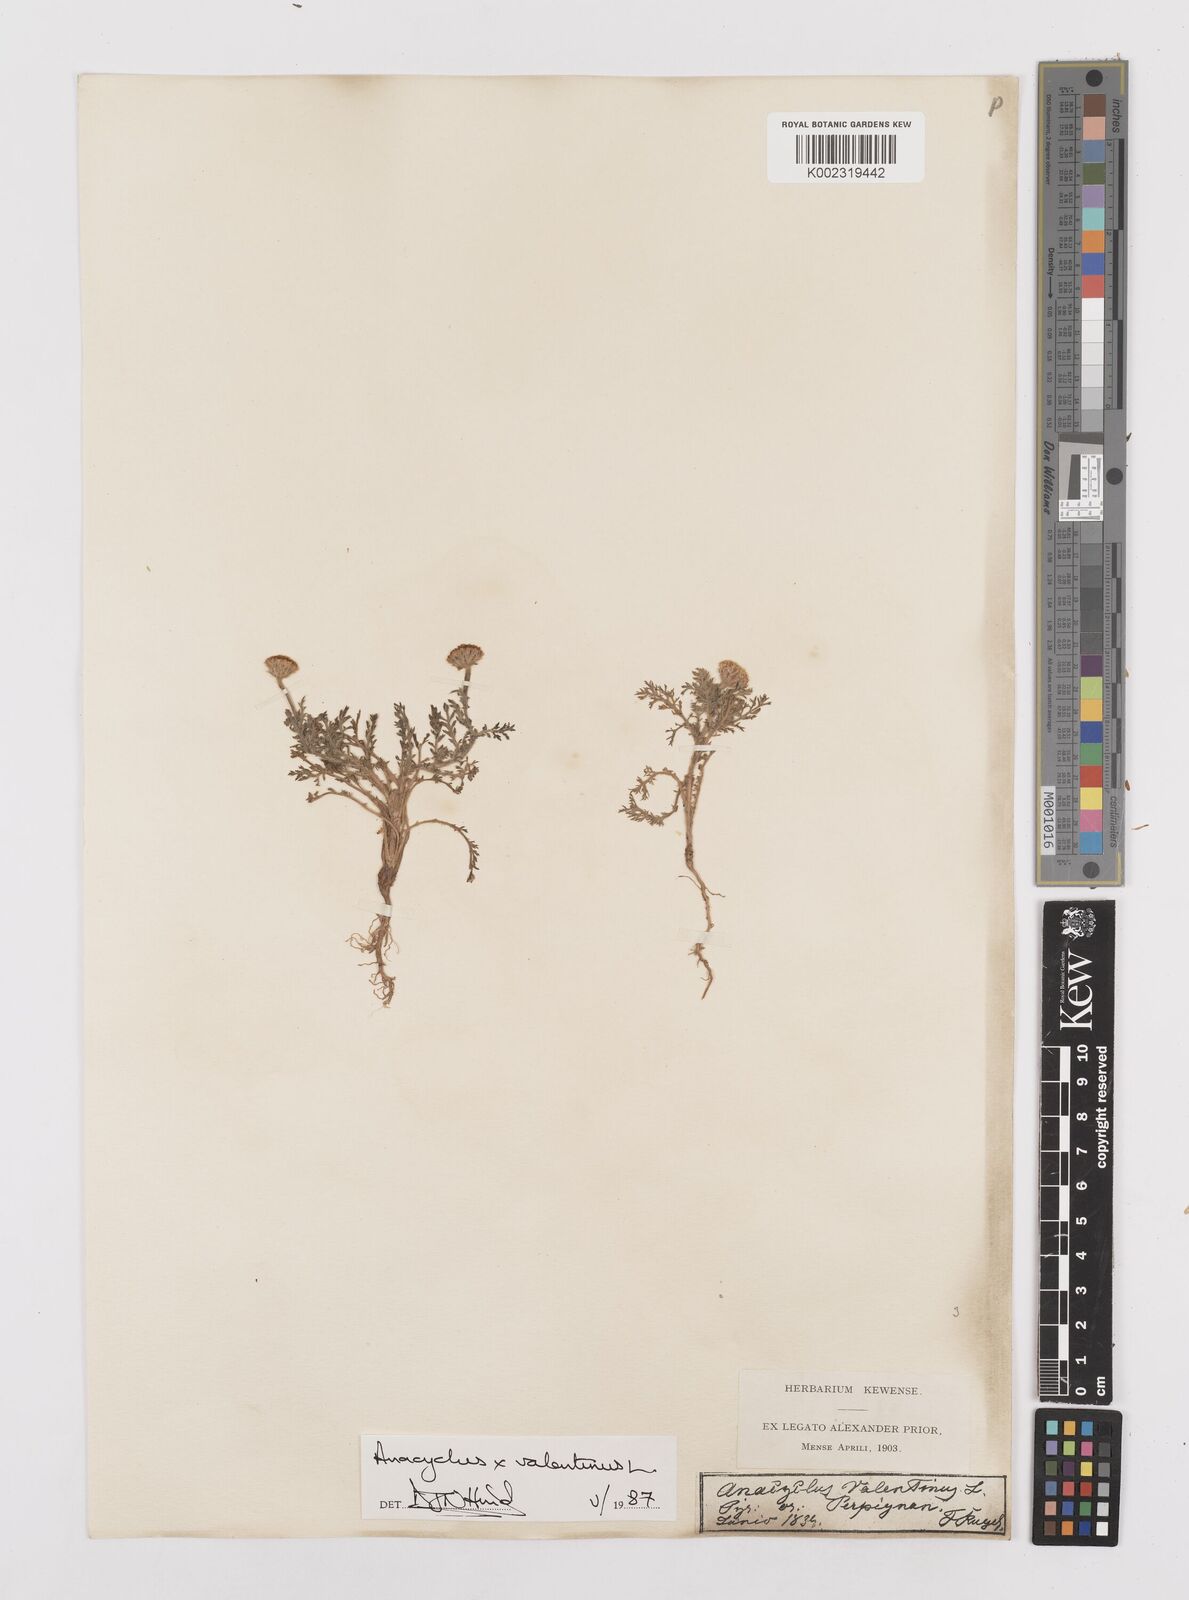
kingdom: Plantae
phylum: Tracheophyta
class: Magnoliopsida
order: Asterales
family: Asteraceae
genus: Anacyclus
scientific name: Anacyclus valentinus
